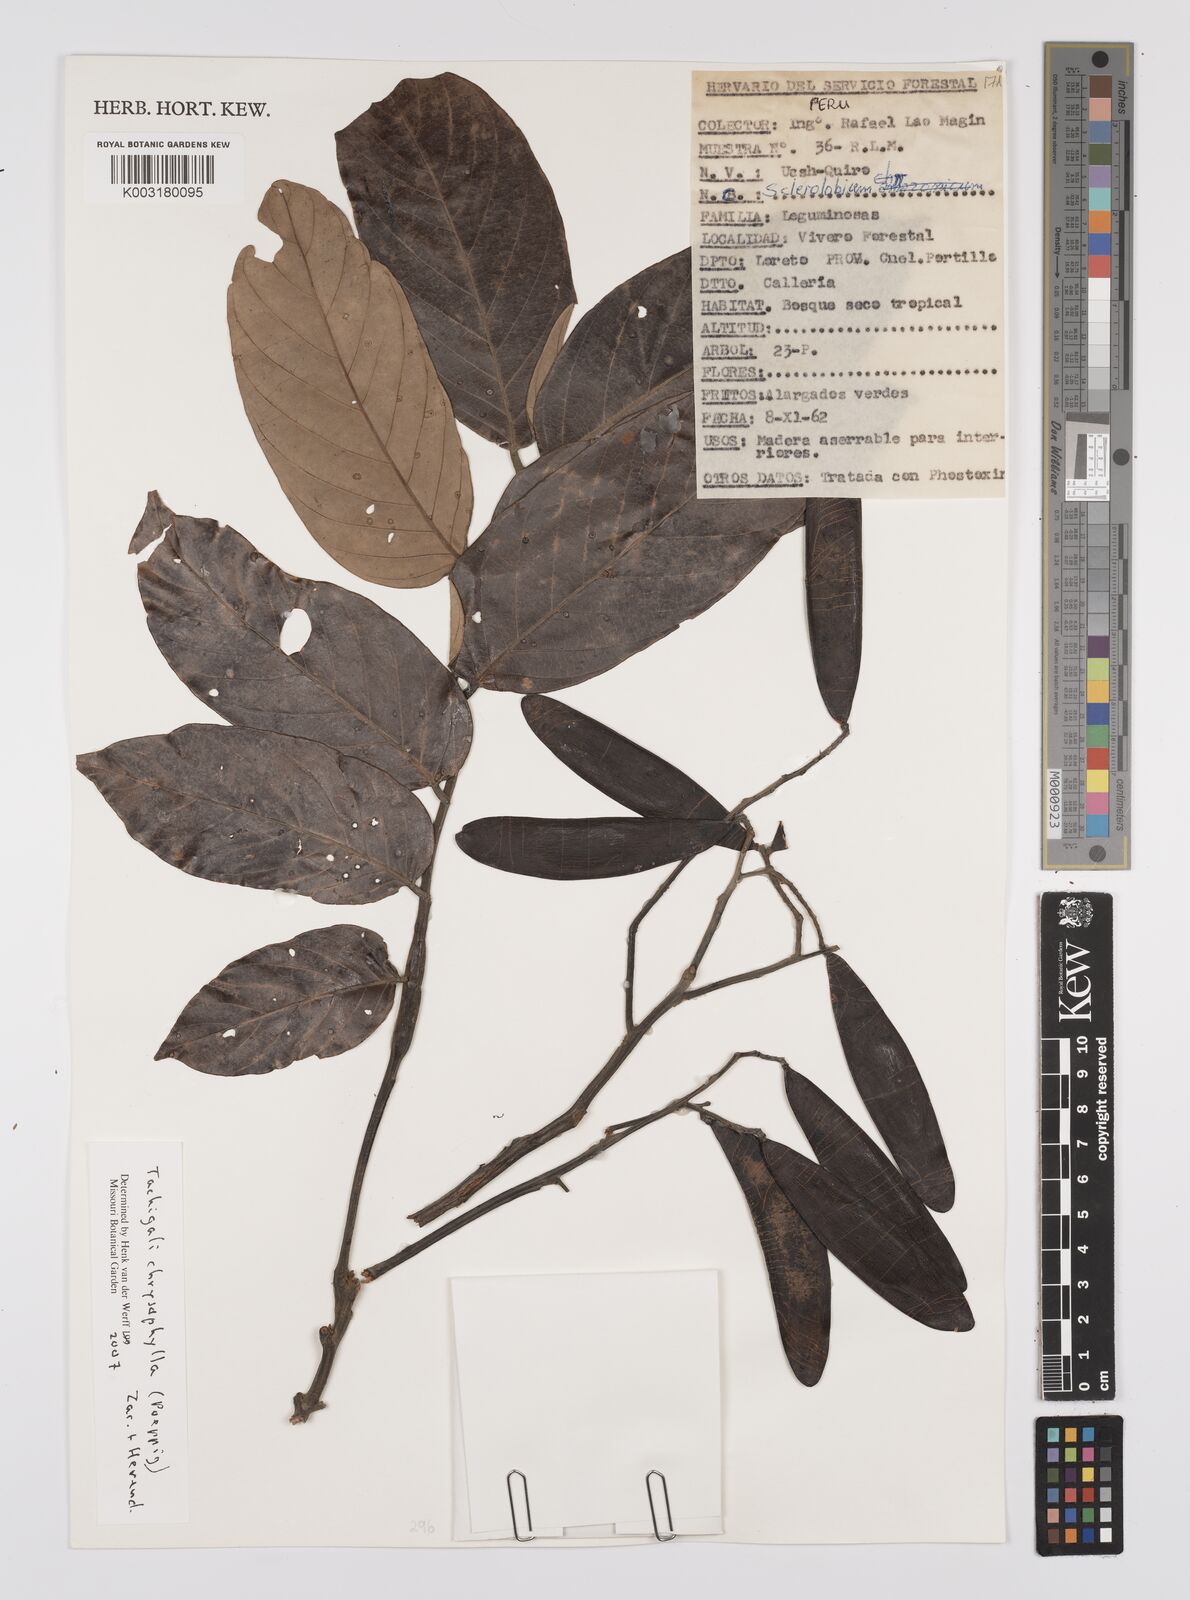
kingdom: Plantae
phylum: Tracheophyta
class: Magnoliopsida
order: Fabales
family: Fabaceae
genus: Tachigali
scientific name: Tachigali chrysophylla
